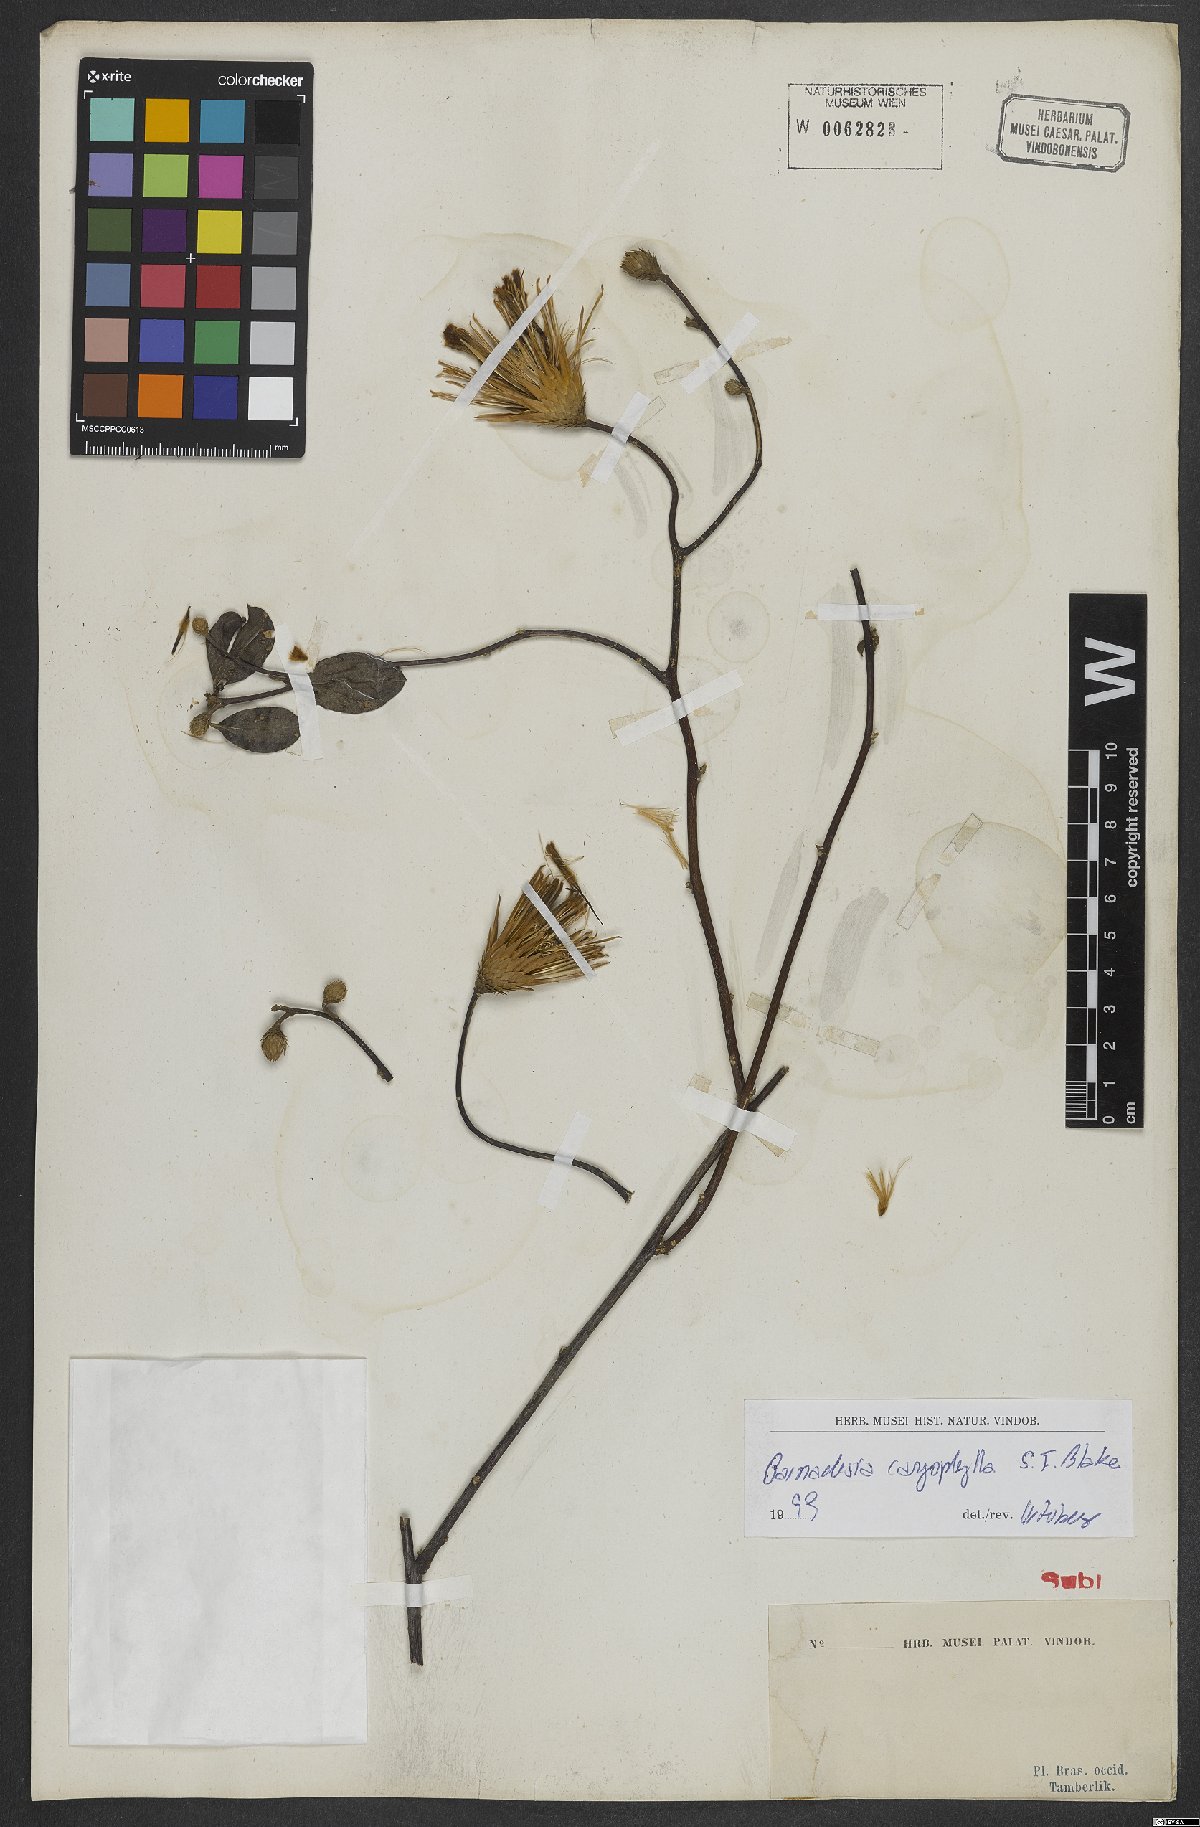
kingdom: Plantae
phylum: Tracheophyta
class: Magnoliopsida
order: Asterales
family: Asteraceae
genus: Barnadesia
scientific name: Barnadesia caryophylla
